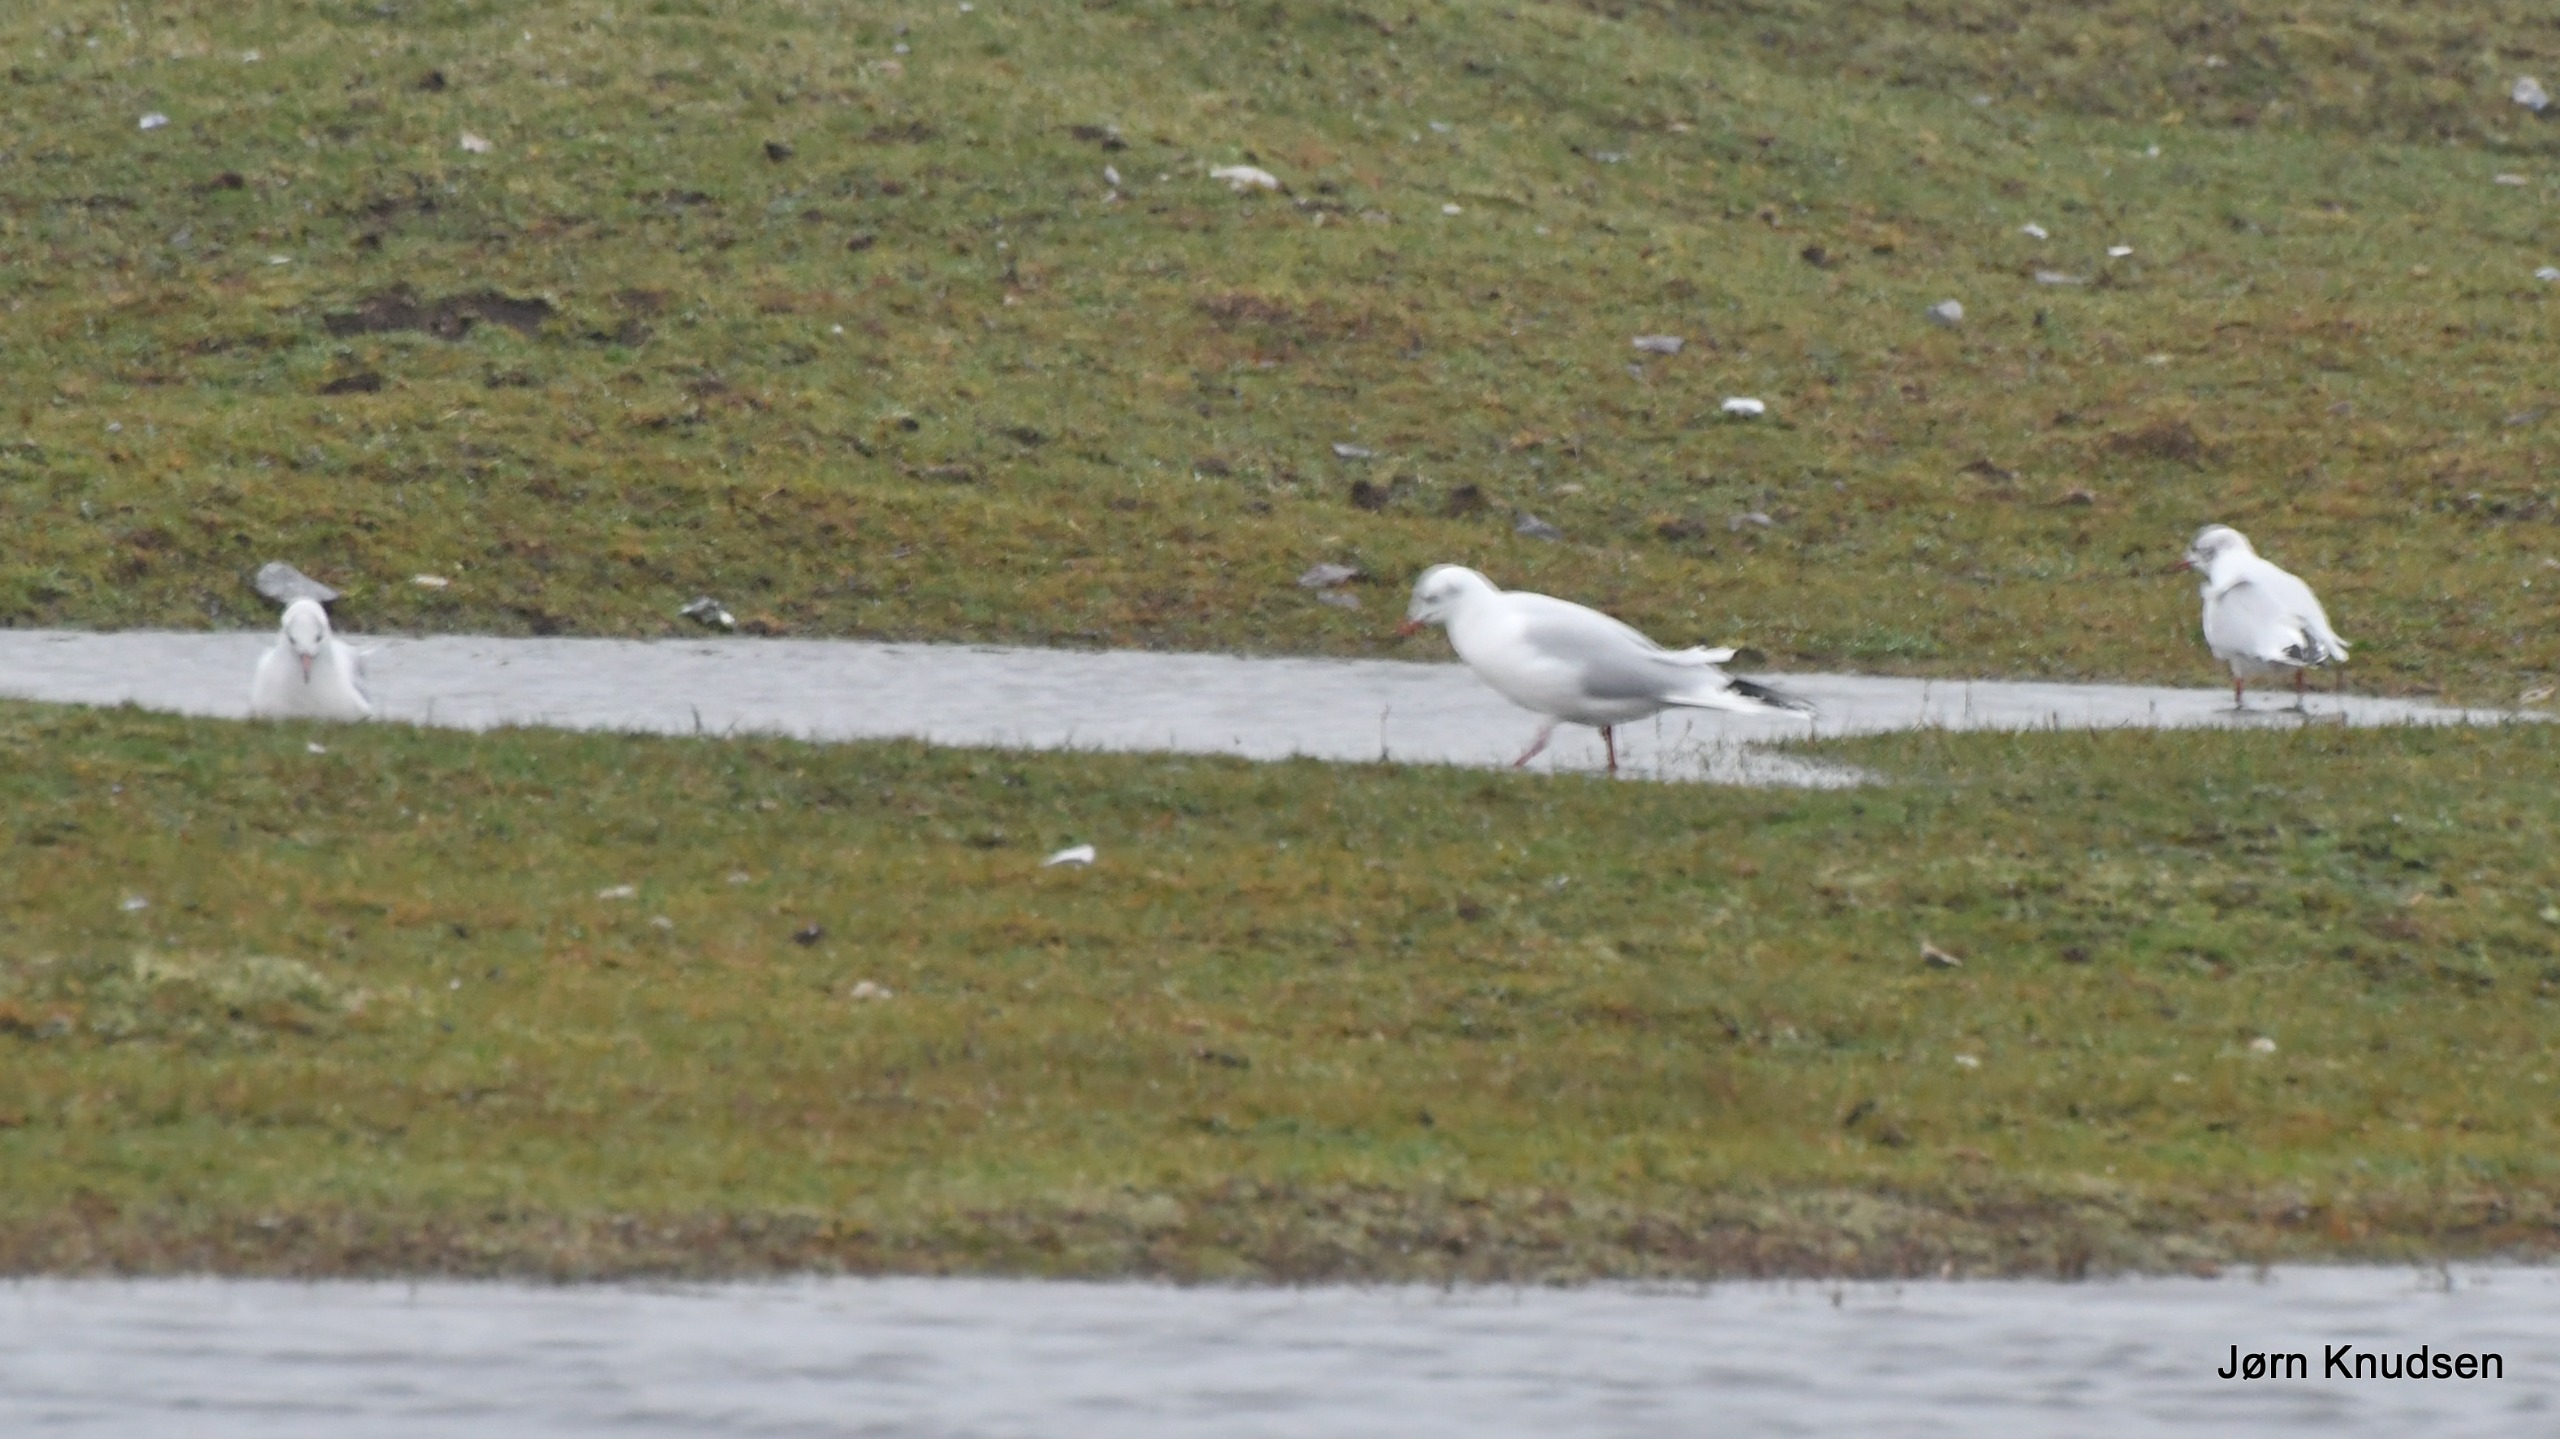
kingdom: Animalia
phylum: Chordata
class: Aves
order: Charadriiformes
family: Laridae
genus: Chroicocephalus
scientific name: Chroicocephalus ridibundus
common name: Hættemåge
